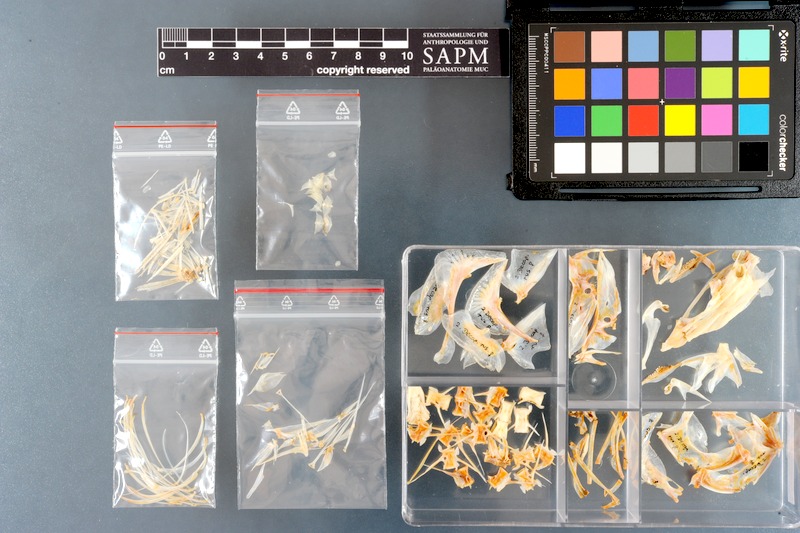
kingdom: Animalia
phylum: Chordata
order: Perciformes
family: Carangidae
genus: Decapterus
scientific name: Decapterus russelli
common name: Indian scad
